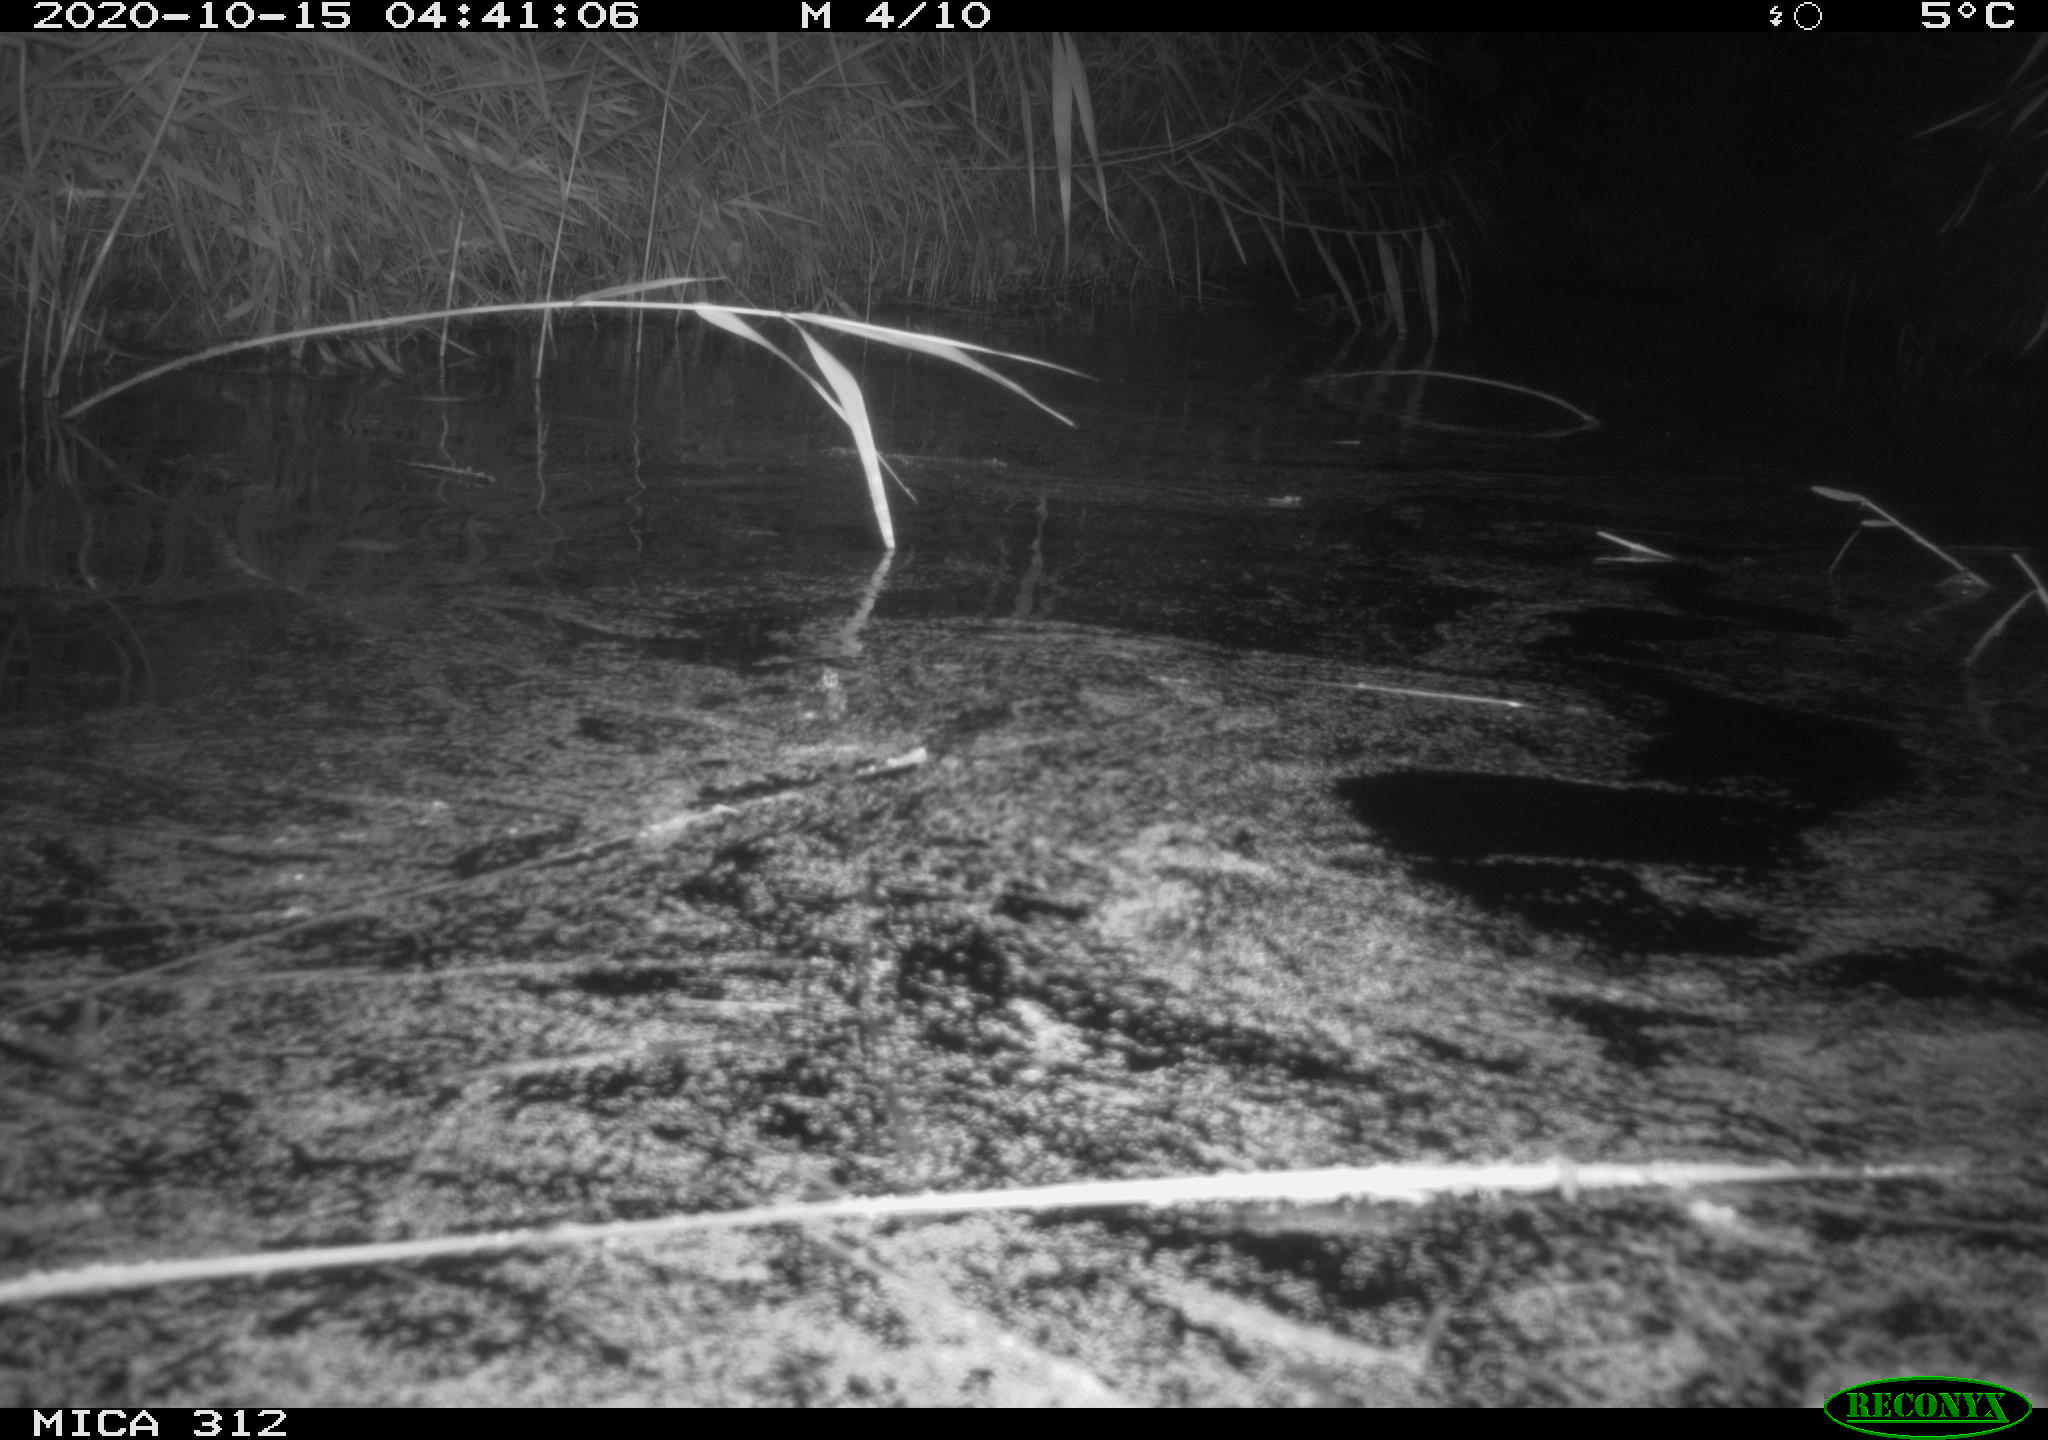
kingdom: Animalia
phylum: Chordata
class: Mammalia
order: Rodentia
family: Cricetidae
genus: Ondatra
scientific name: Ondatra zibethicus
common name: Muskrat
